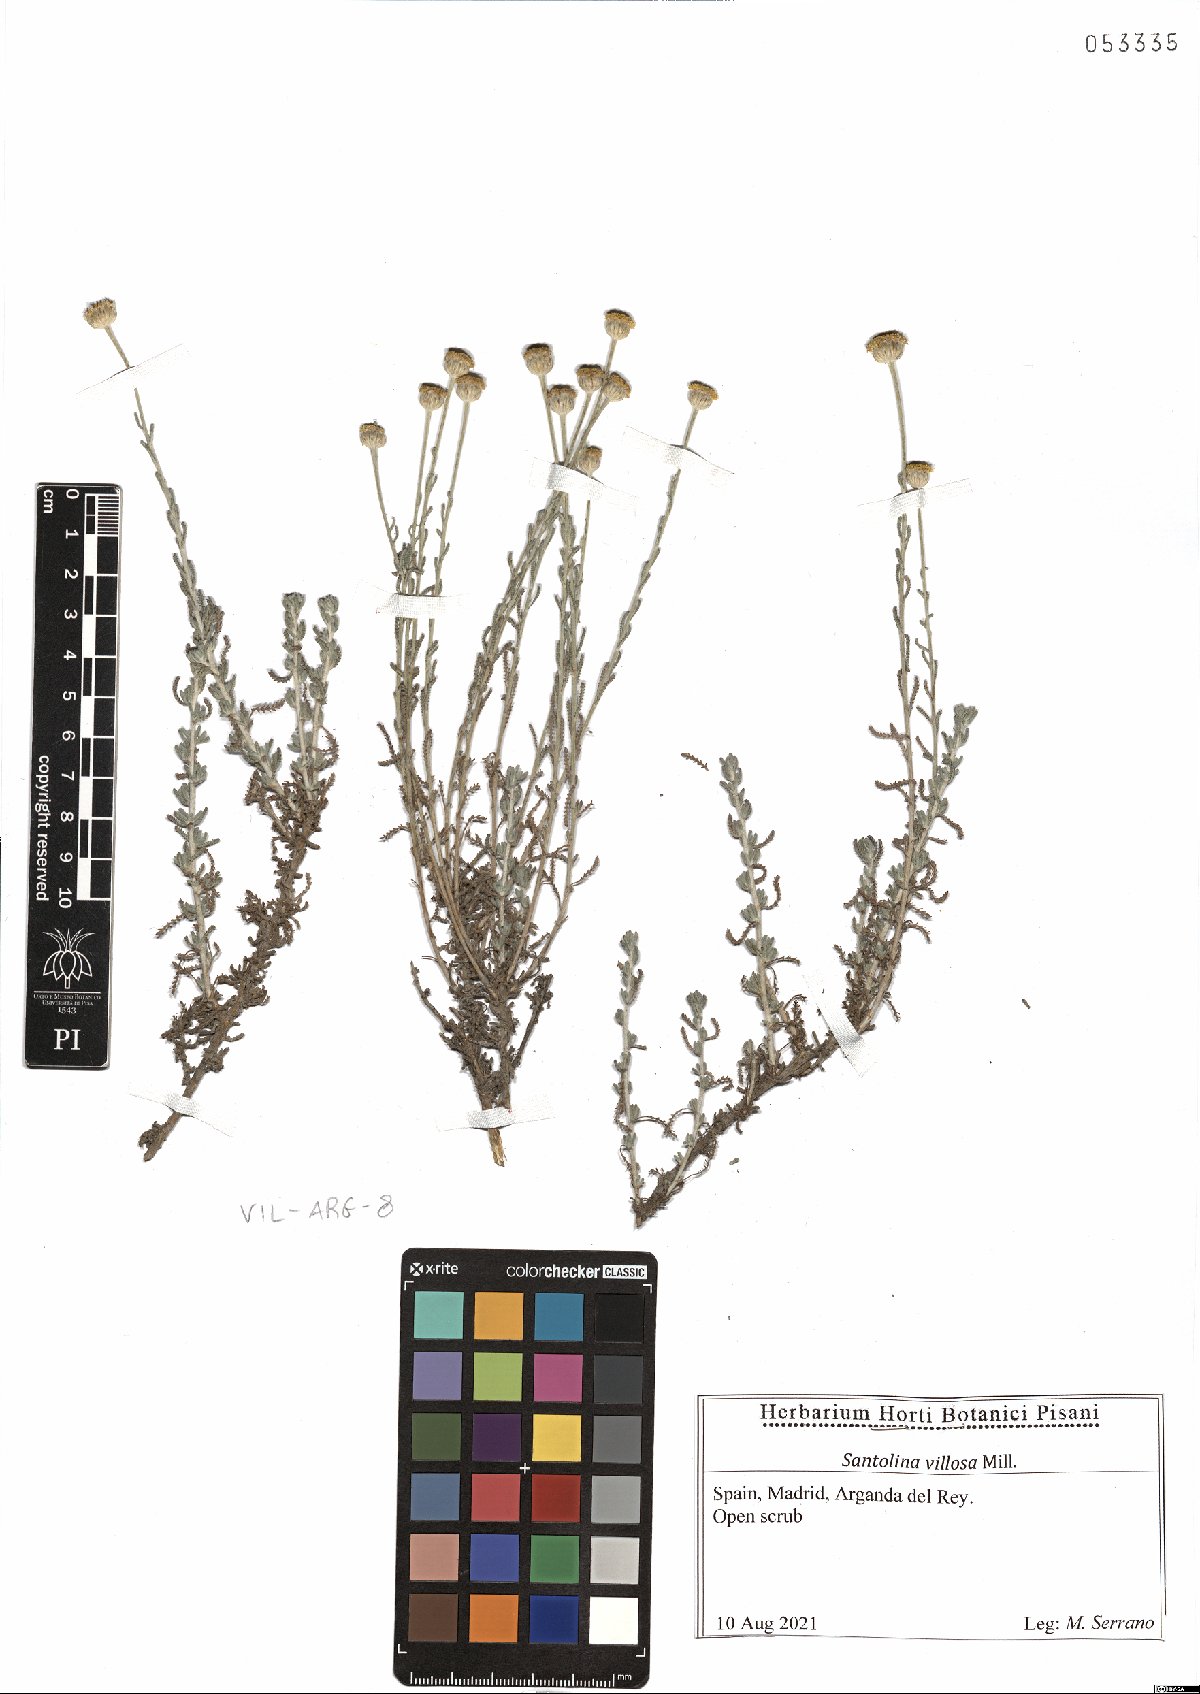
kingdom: Plantae
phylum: Tracheophyta
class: Magnoliopsida
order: Asterales
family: Asteraceae
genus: Santolina
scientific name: Santolina chamaecyparissus
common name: Lavender-cotton
